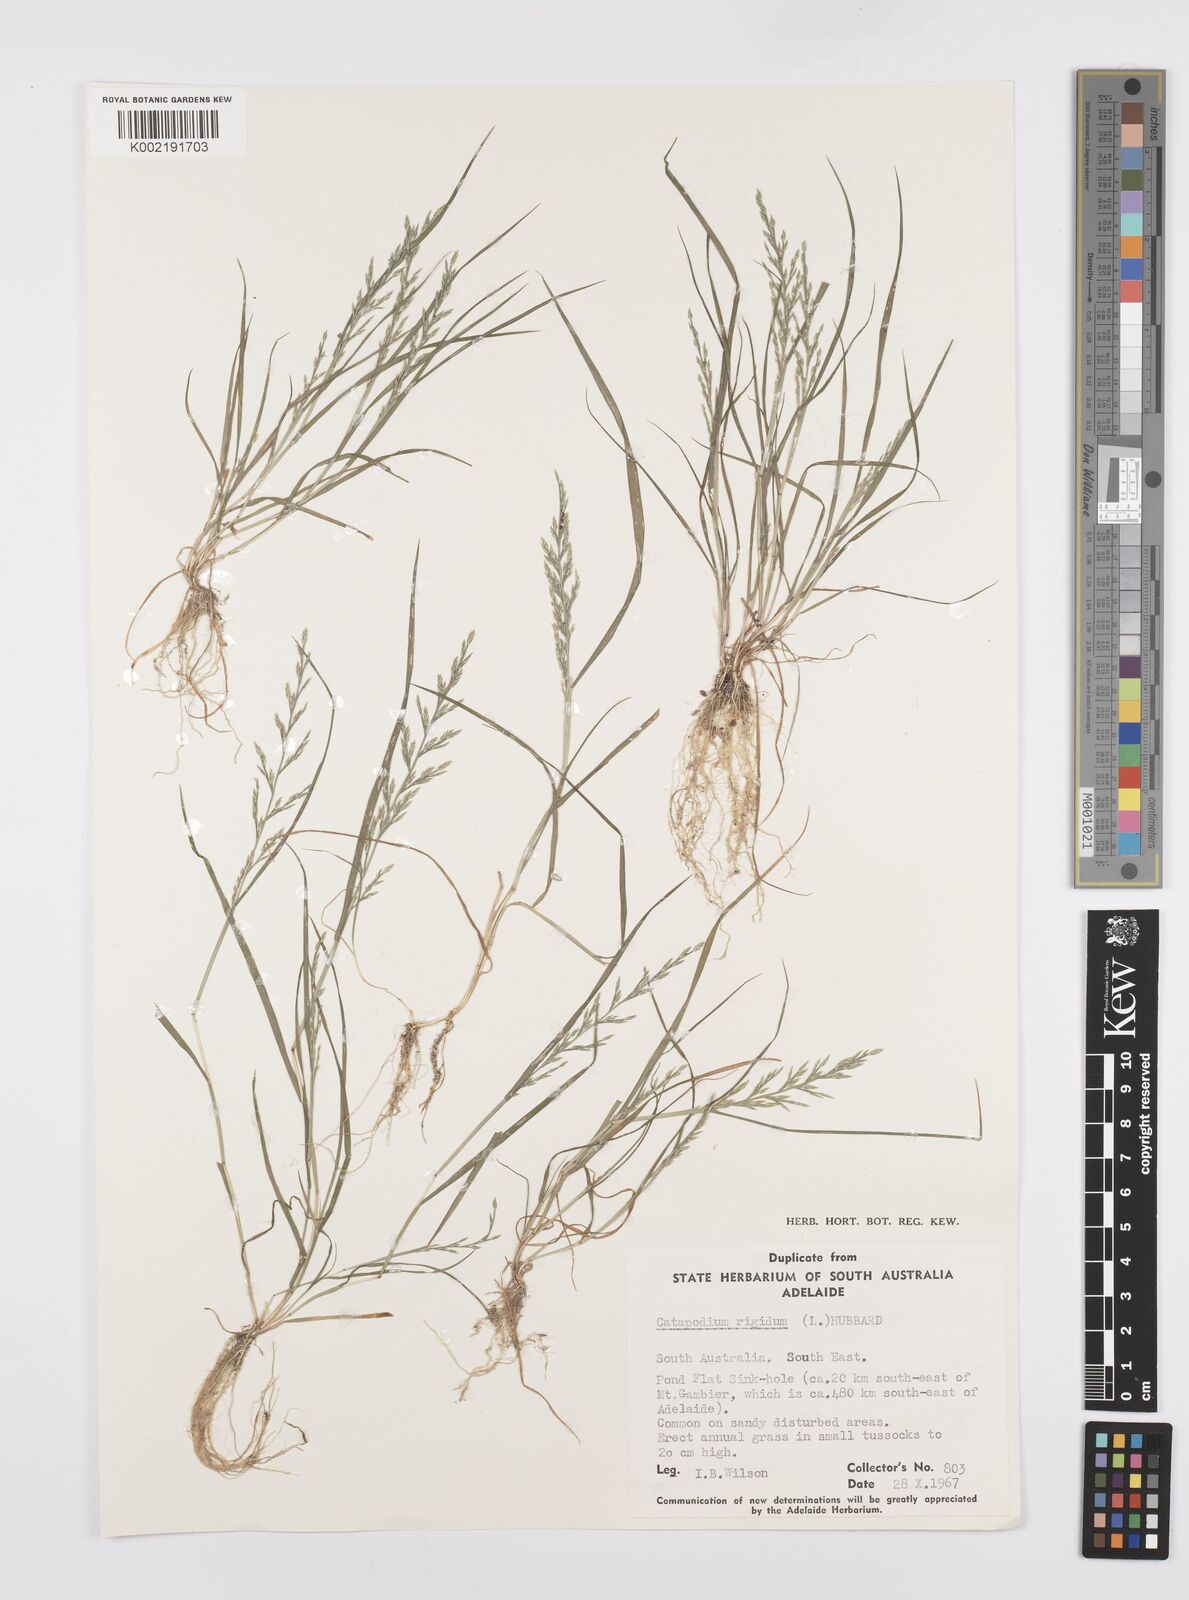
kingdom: Plantae
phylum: Tracheophyta
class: Liliopsida
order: Poales
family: Poaceae
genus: Catapodium
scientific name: Catapodium rigidum
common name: Fern-grass
